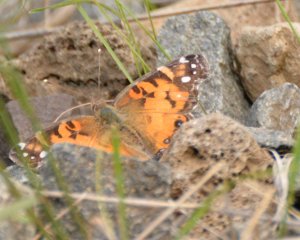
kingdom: Animalia
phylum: Arthropoda
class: Insecta
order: Lepidoptera
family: Nymphalidae
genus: Vanessa
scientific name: Vanessa virginiensis
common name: American Lady
